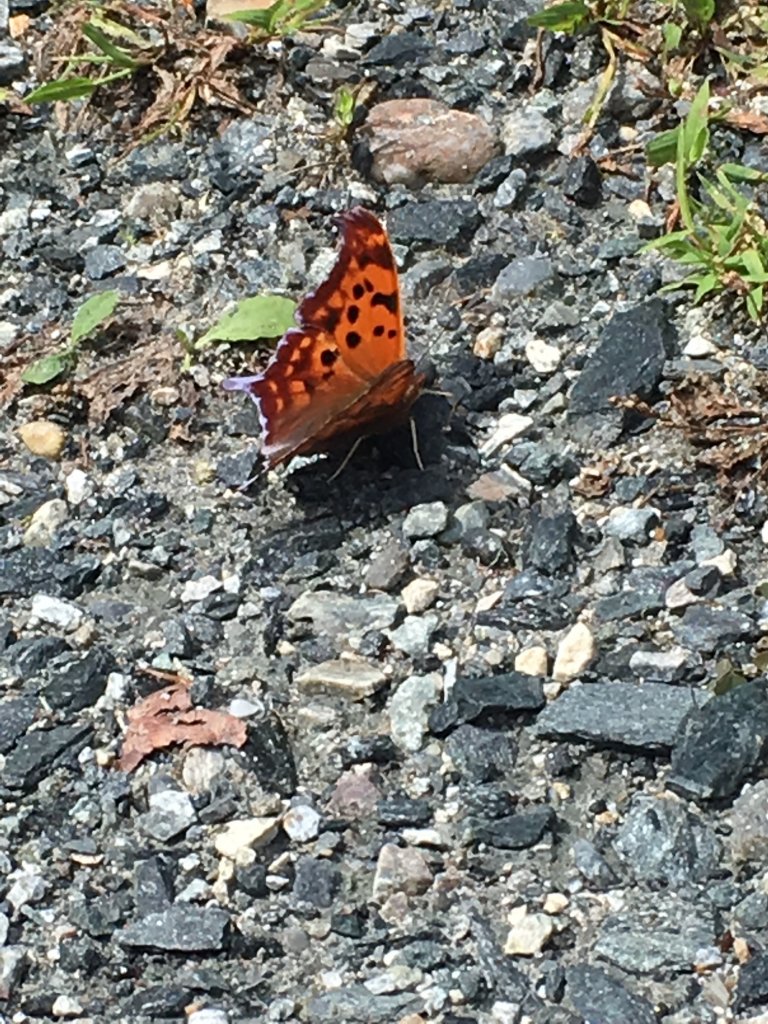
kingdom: Animalia
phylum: Arthropoda
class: Insecta
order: Lepidoptera
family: Nymphalidae
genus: Polygonia
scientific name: Polygonia interrogationis
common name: Question Mark
